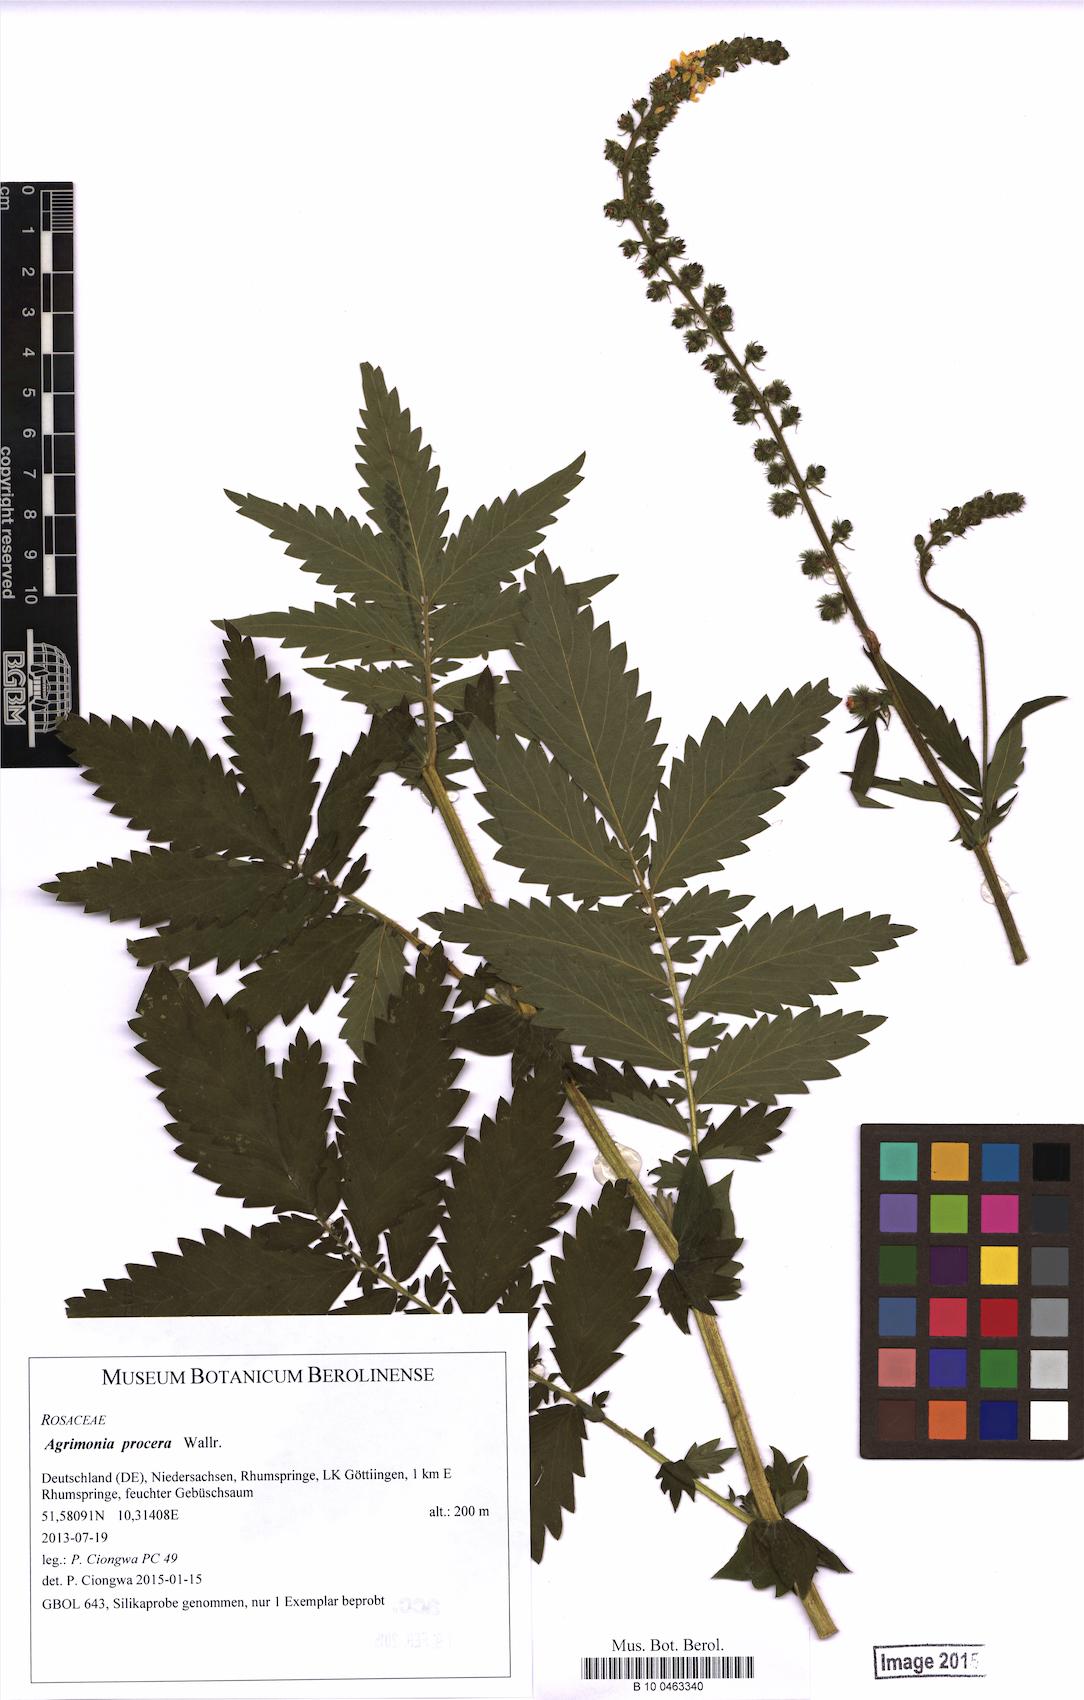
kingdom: Plantae
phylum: Tracheophyta
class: Magnoliopsida
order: Rosales
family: Rosaceae
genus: Agrimonia
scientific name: Agrimonia procera
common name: Fragrant agrimony
